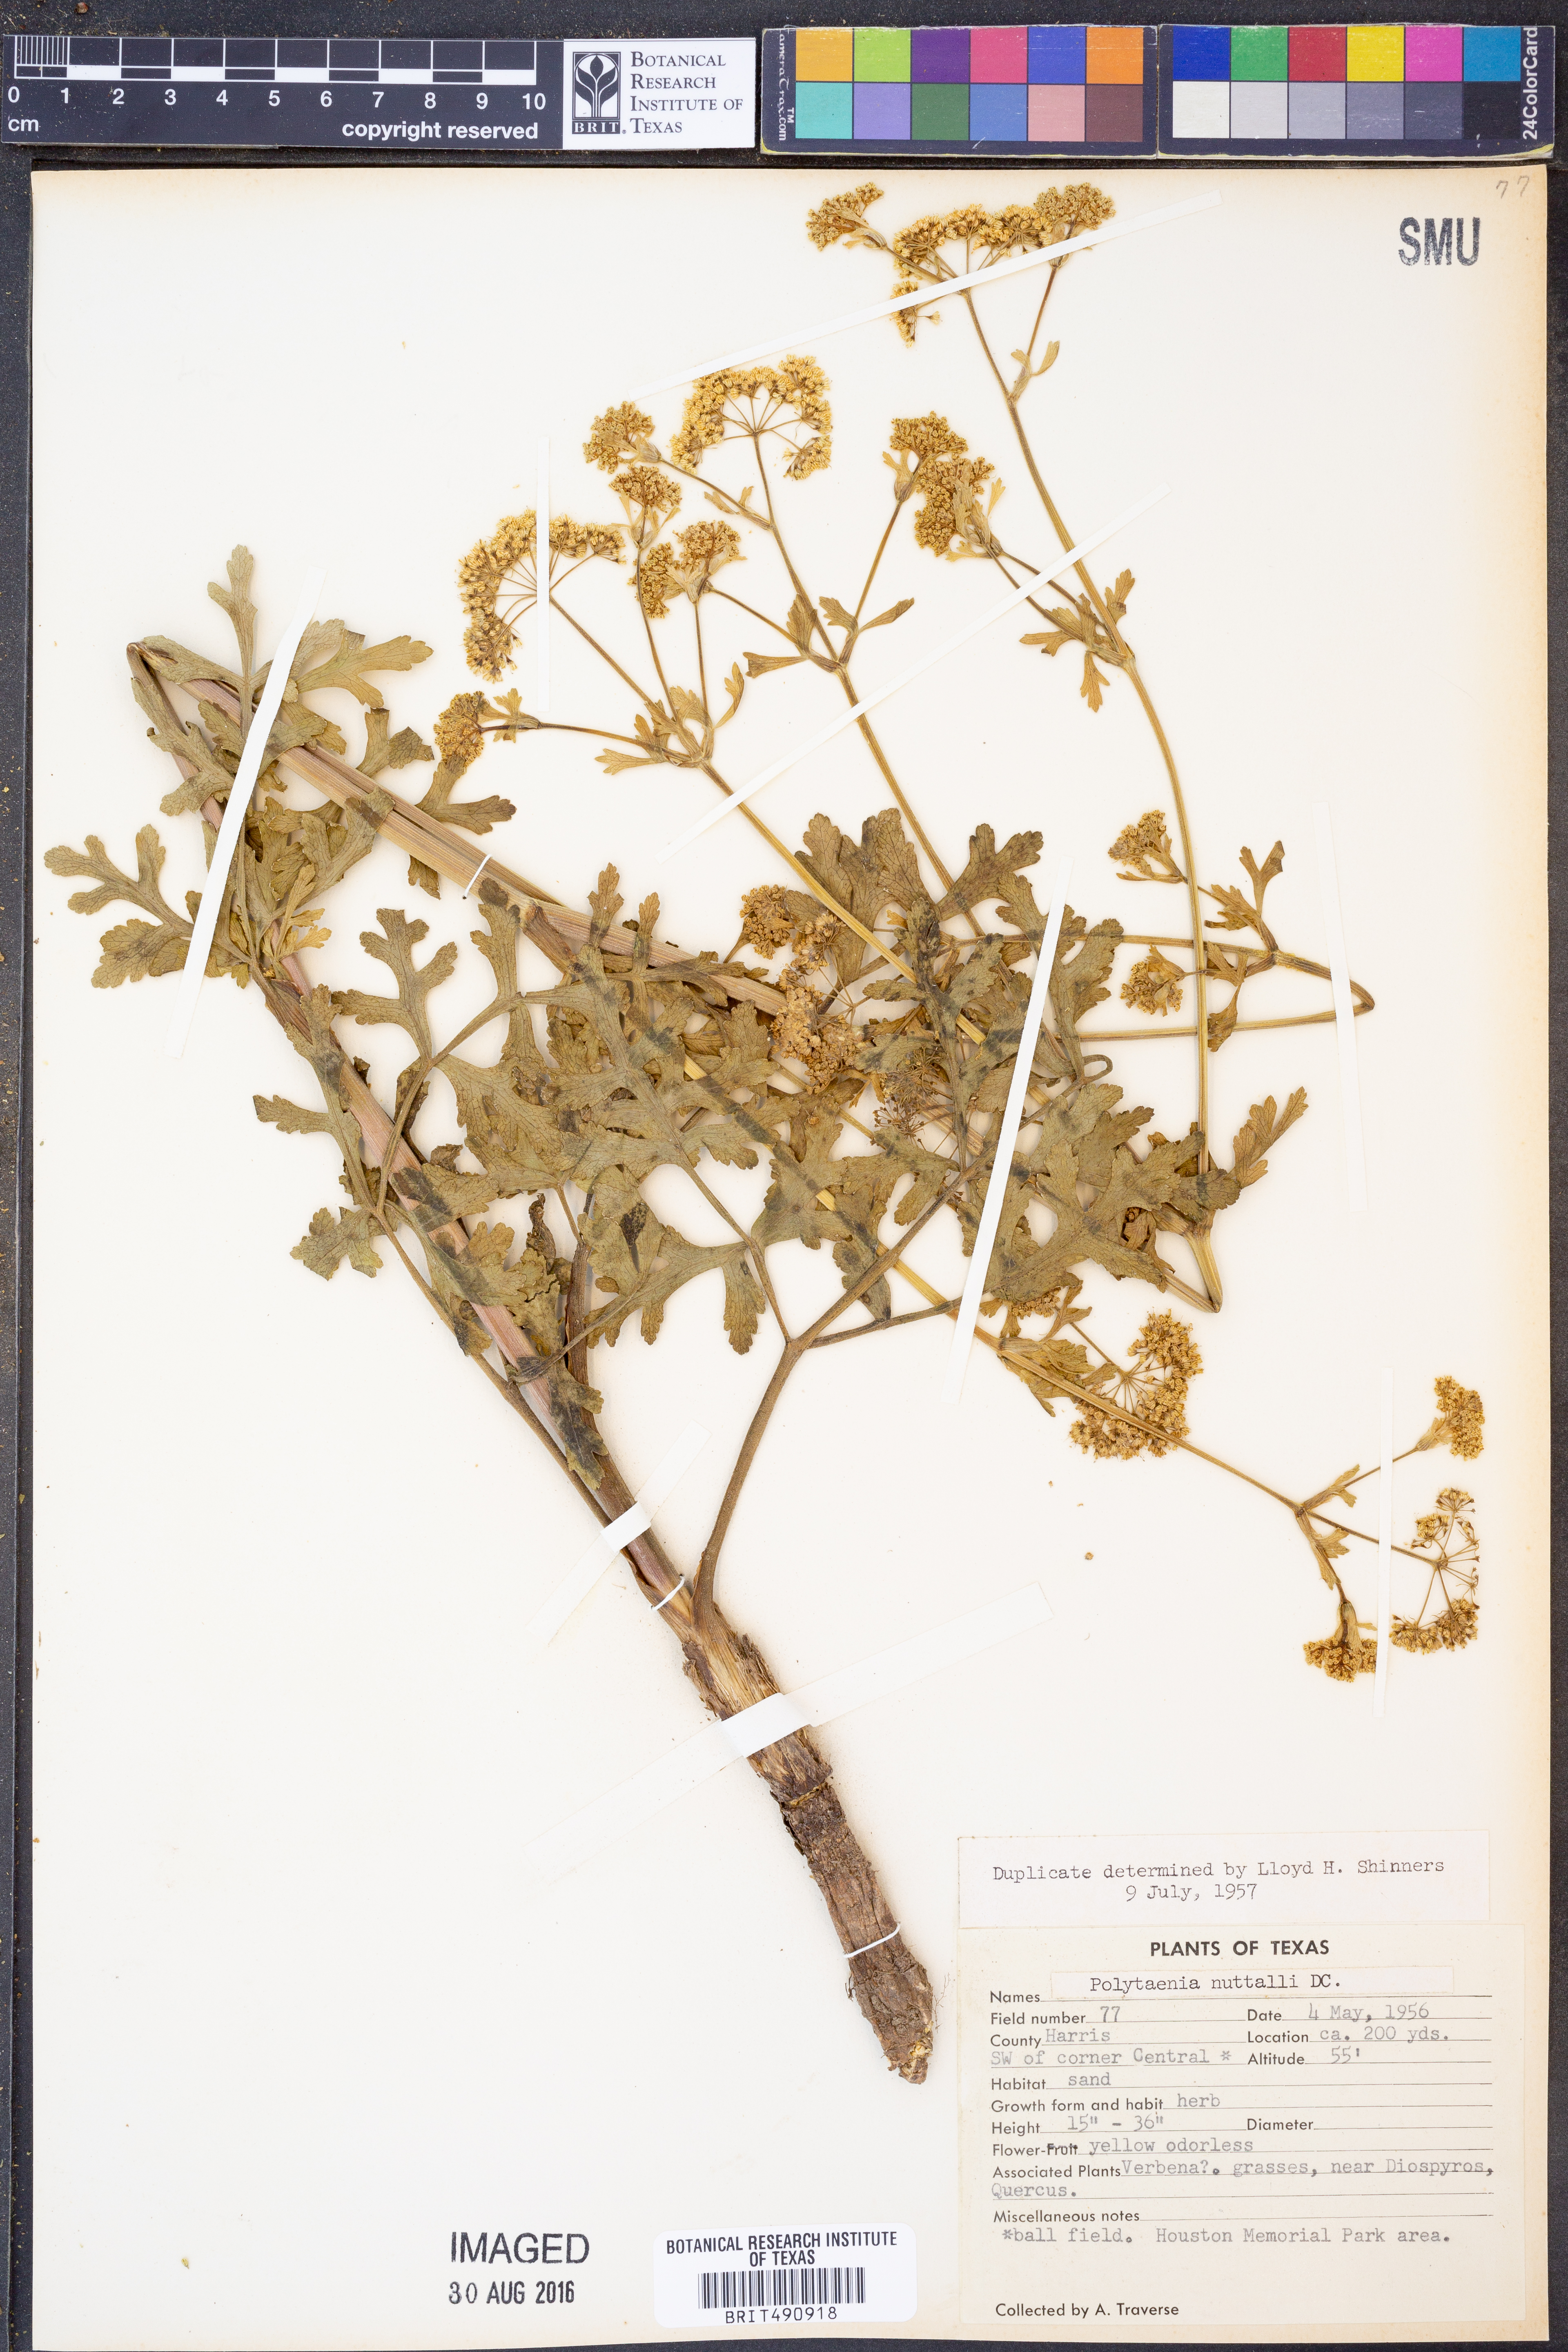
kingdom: Plantae
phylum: Tracheophyta
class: Magnoliopsida
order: Apiales
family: Apiaceae
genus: Polytaenia
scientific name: Polytaenia nuttallii
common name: Prairie-parsley
